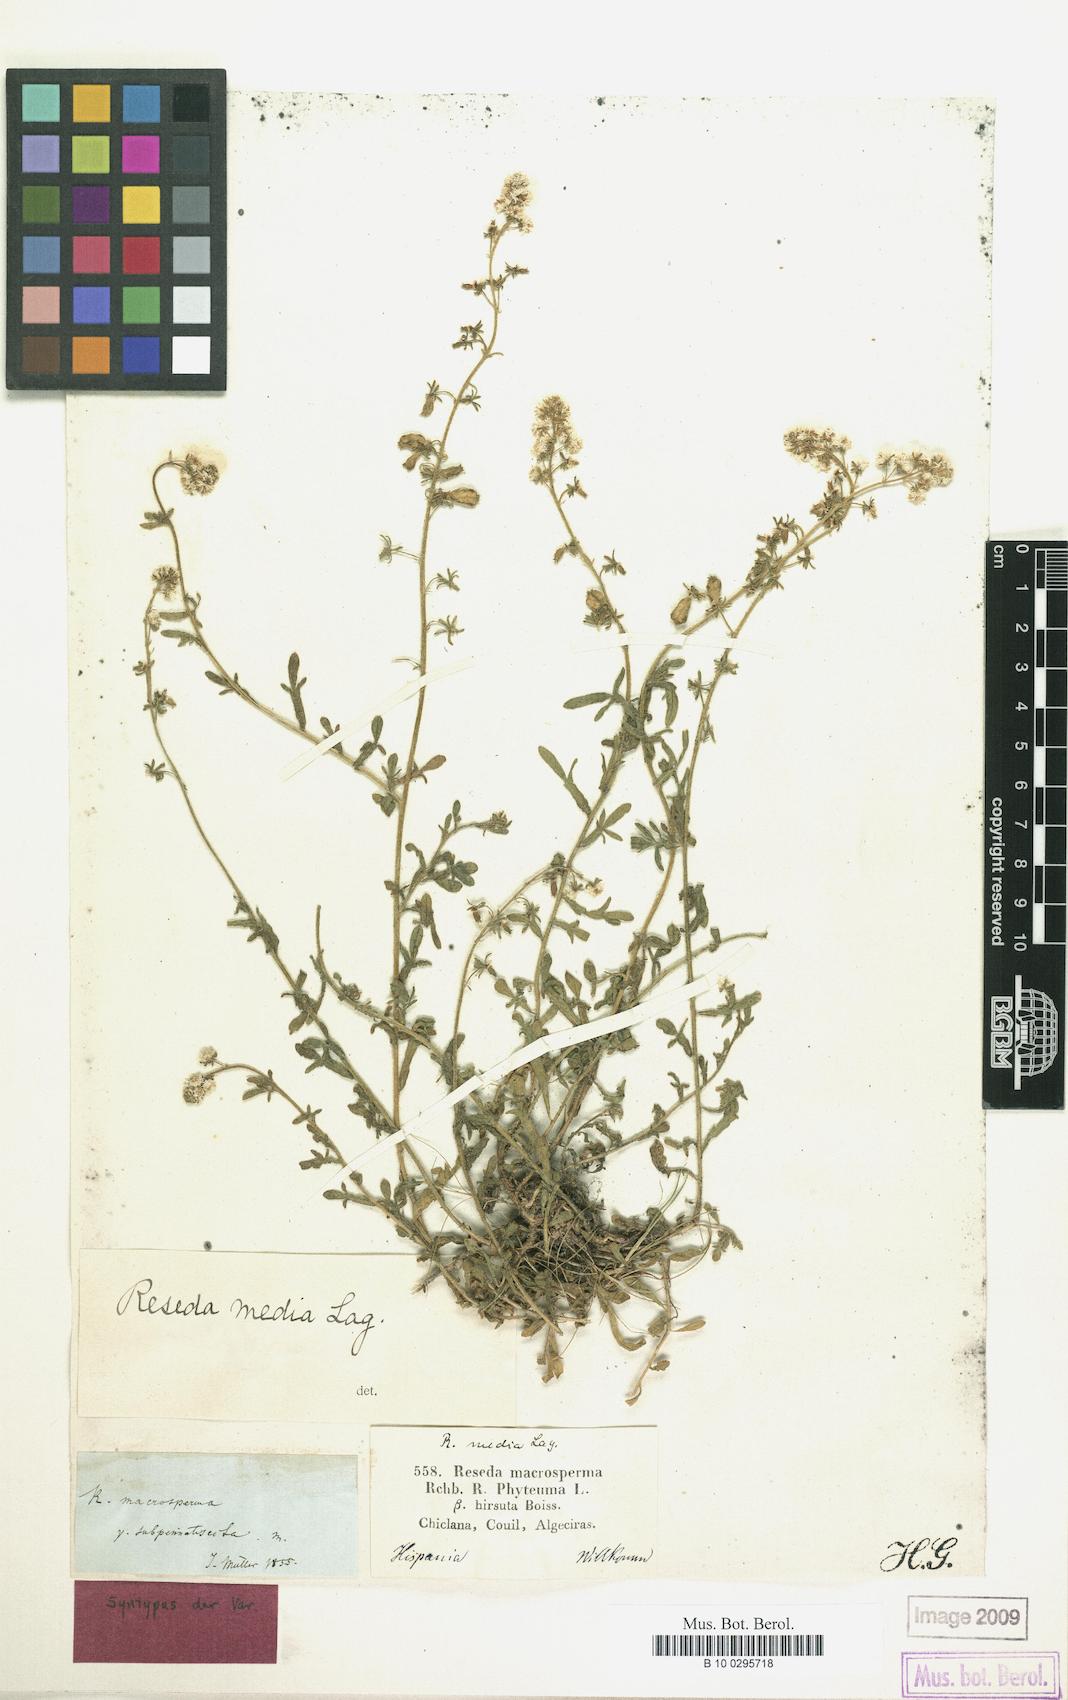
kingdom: Plantae
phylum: Tracheophyta
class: Magnoliopsida
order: Brassicales
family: Resedaceae
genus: Reseda
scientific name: Reseda media
